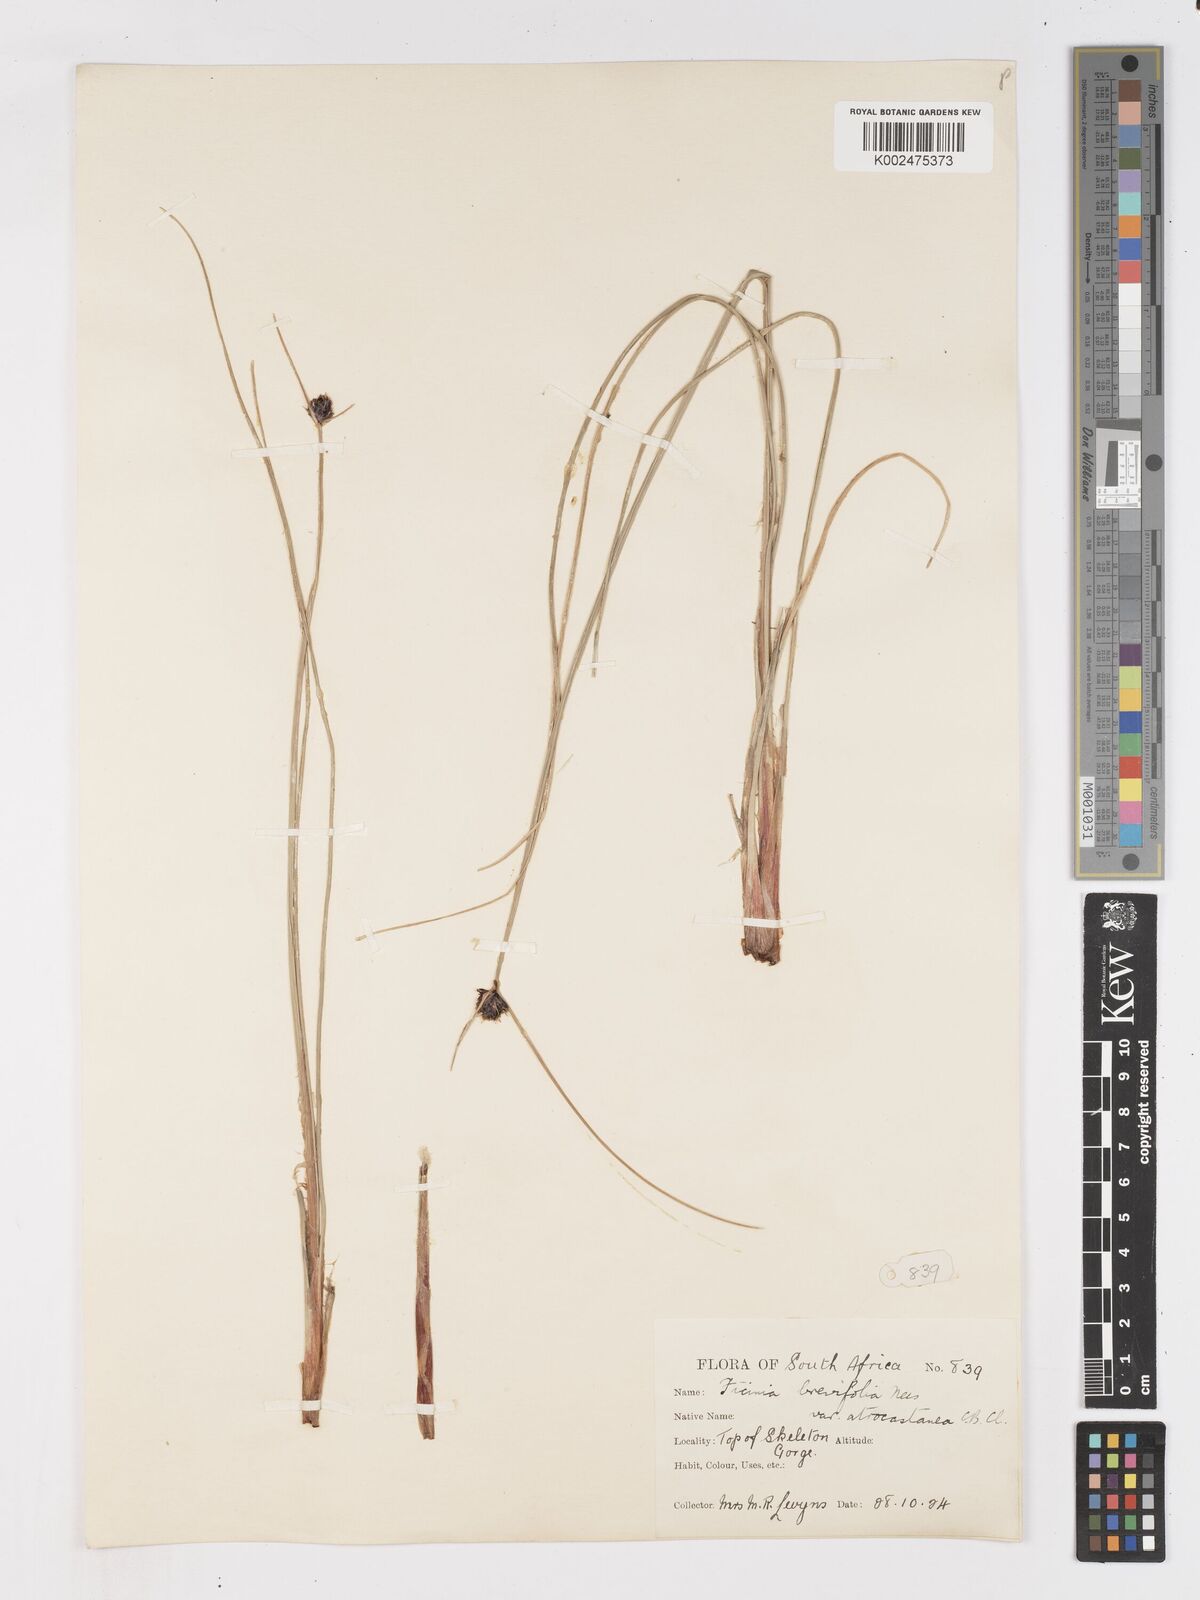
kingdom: Plantae
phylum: Tracheophyta
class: Liliopsida
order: Poales
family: Cyperaceae
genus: Ficinia
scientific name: Ficinia brevifolia
